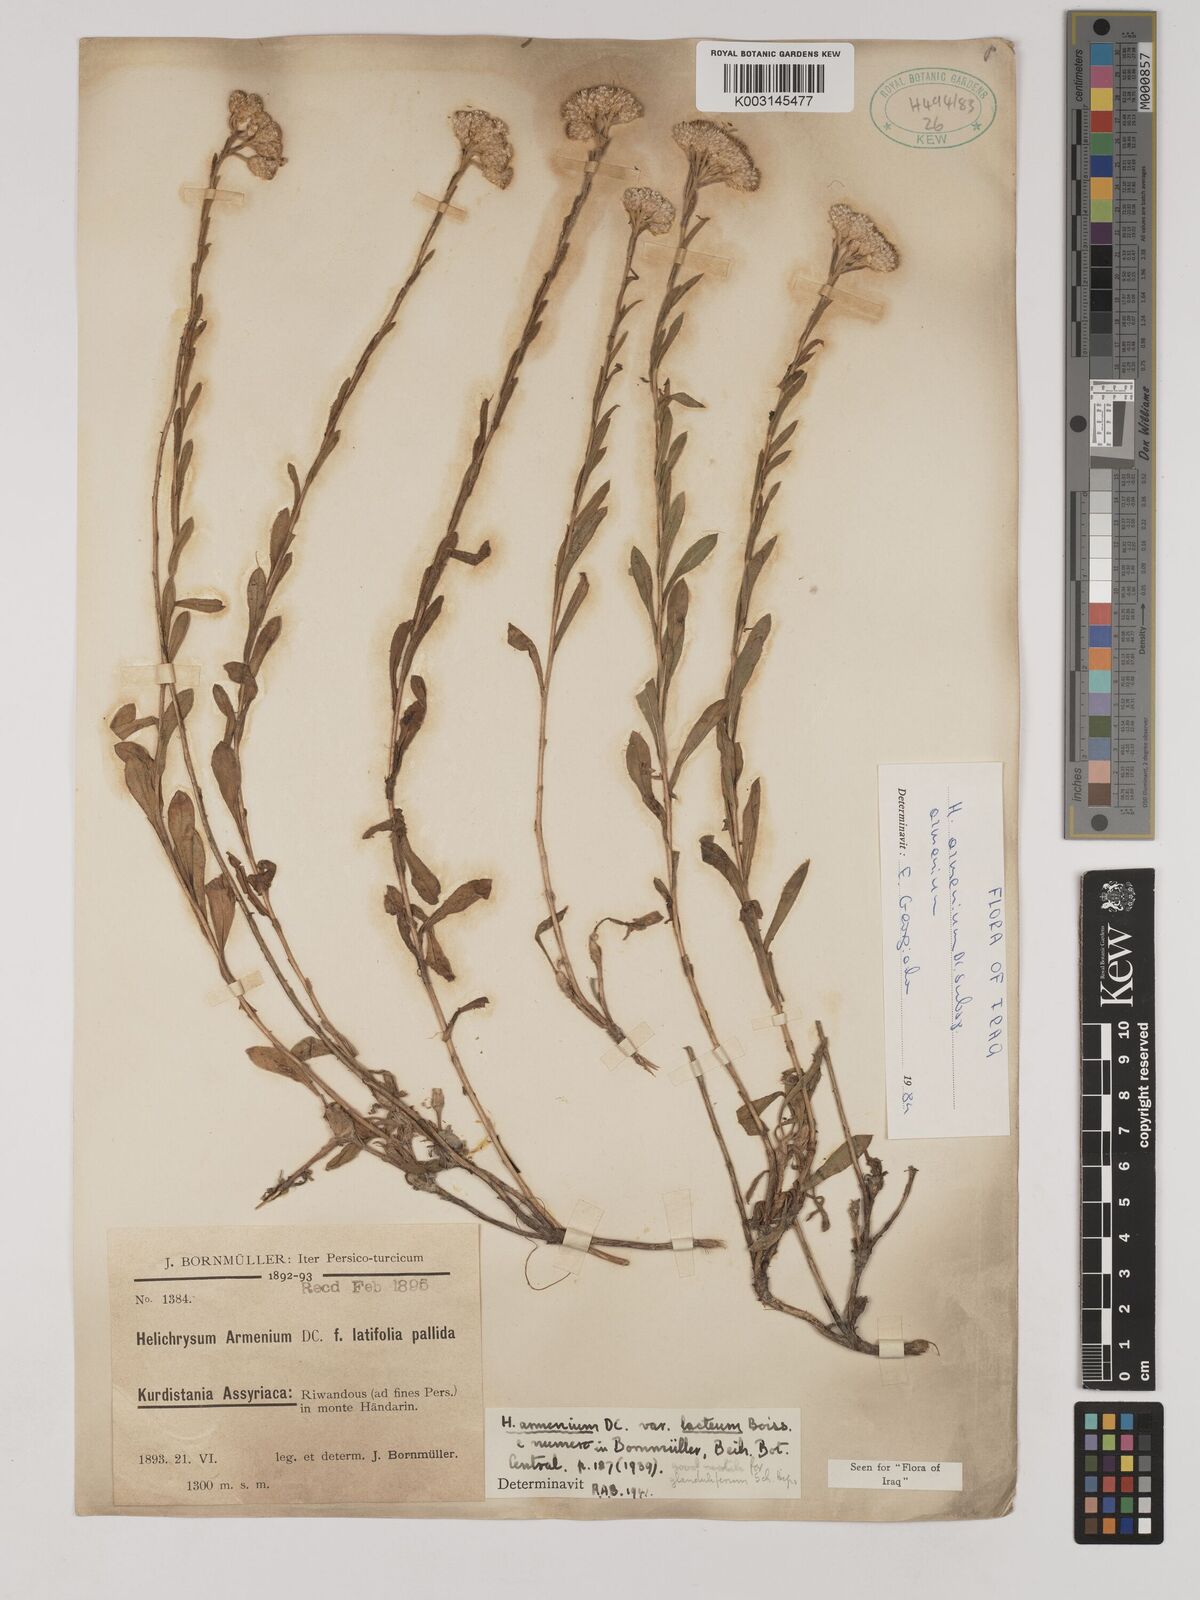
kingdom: Plantae
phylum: Tracheophyta
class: Magnoliopsida
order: Asterales
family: Asteraceae
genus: Helichrysum
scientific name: Helichrysum armenium
